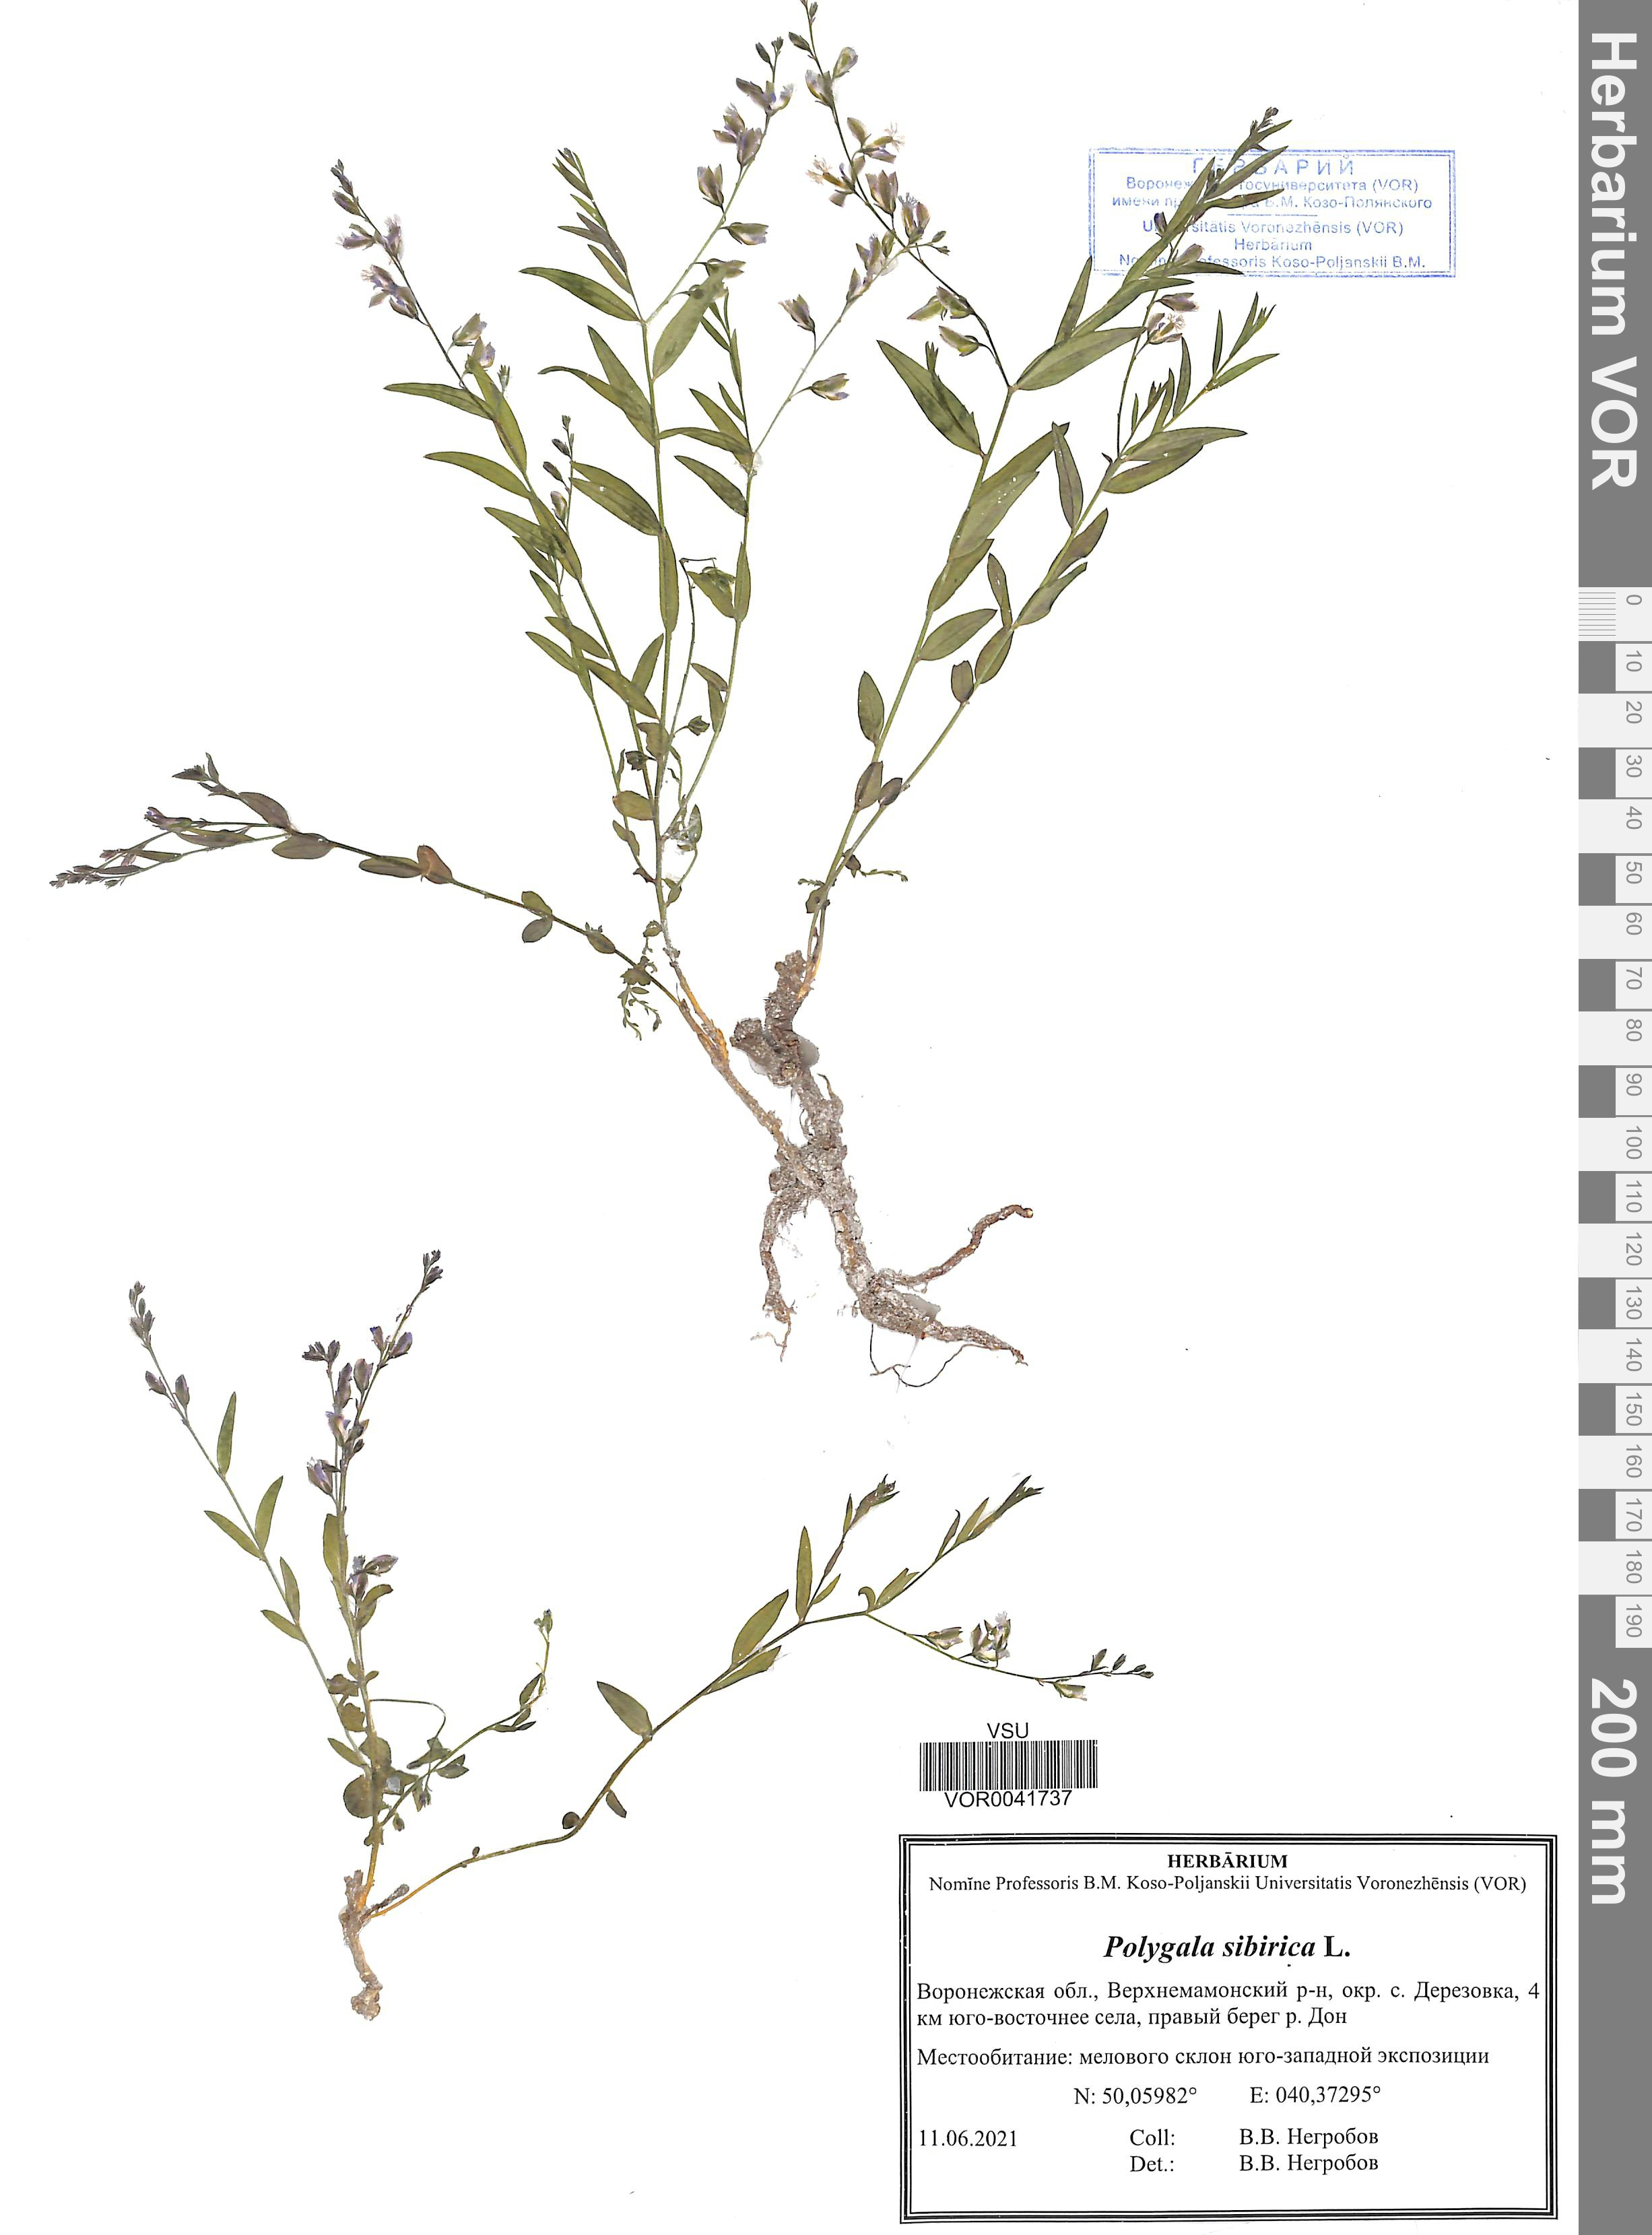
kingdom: Plantae
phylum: Tracheophyta
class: Magnoliopsida
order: Fabales
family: Polygalaceae
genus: Polygala
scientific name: Polygala sibirica
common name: Siberian polygala
